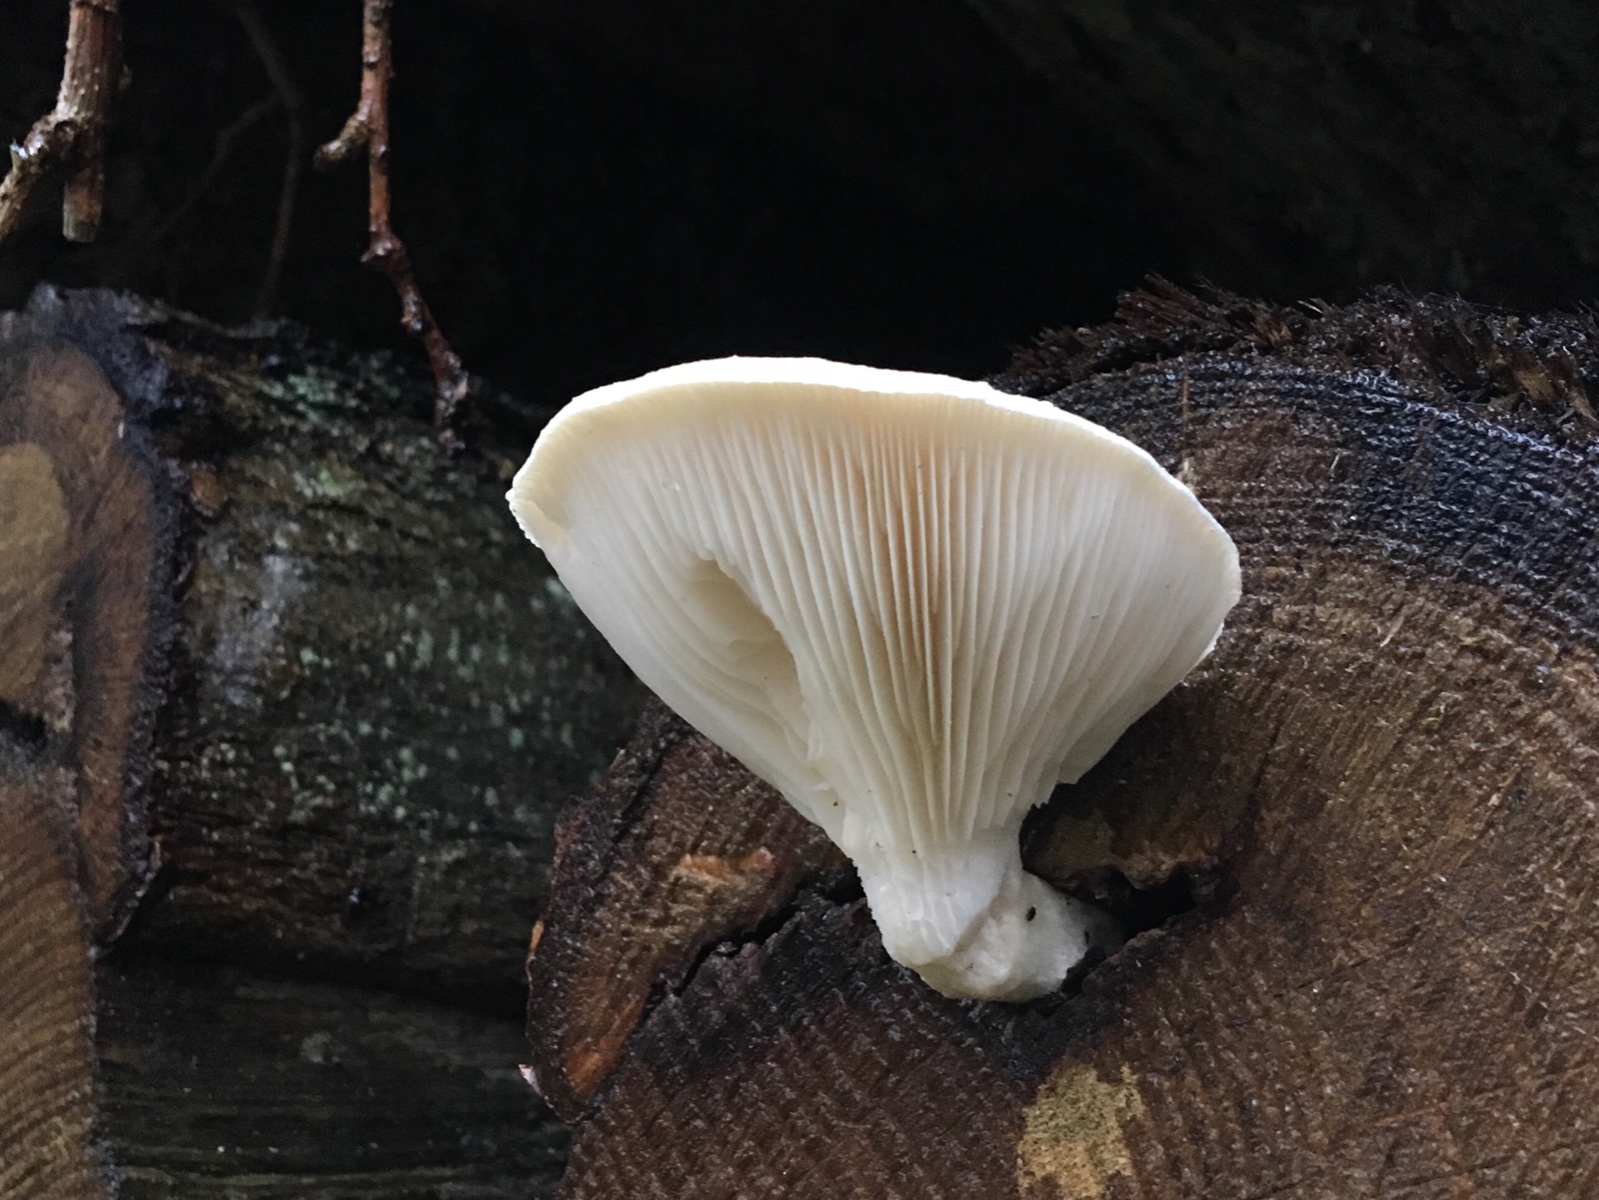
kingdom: Fungi
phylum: Basidiomycota
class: Agaricomycetes
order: Agaricales
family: Pleurotaceae
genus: Pleurotus
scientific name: Pleurotus dryinus
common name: korkagtig østershat
